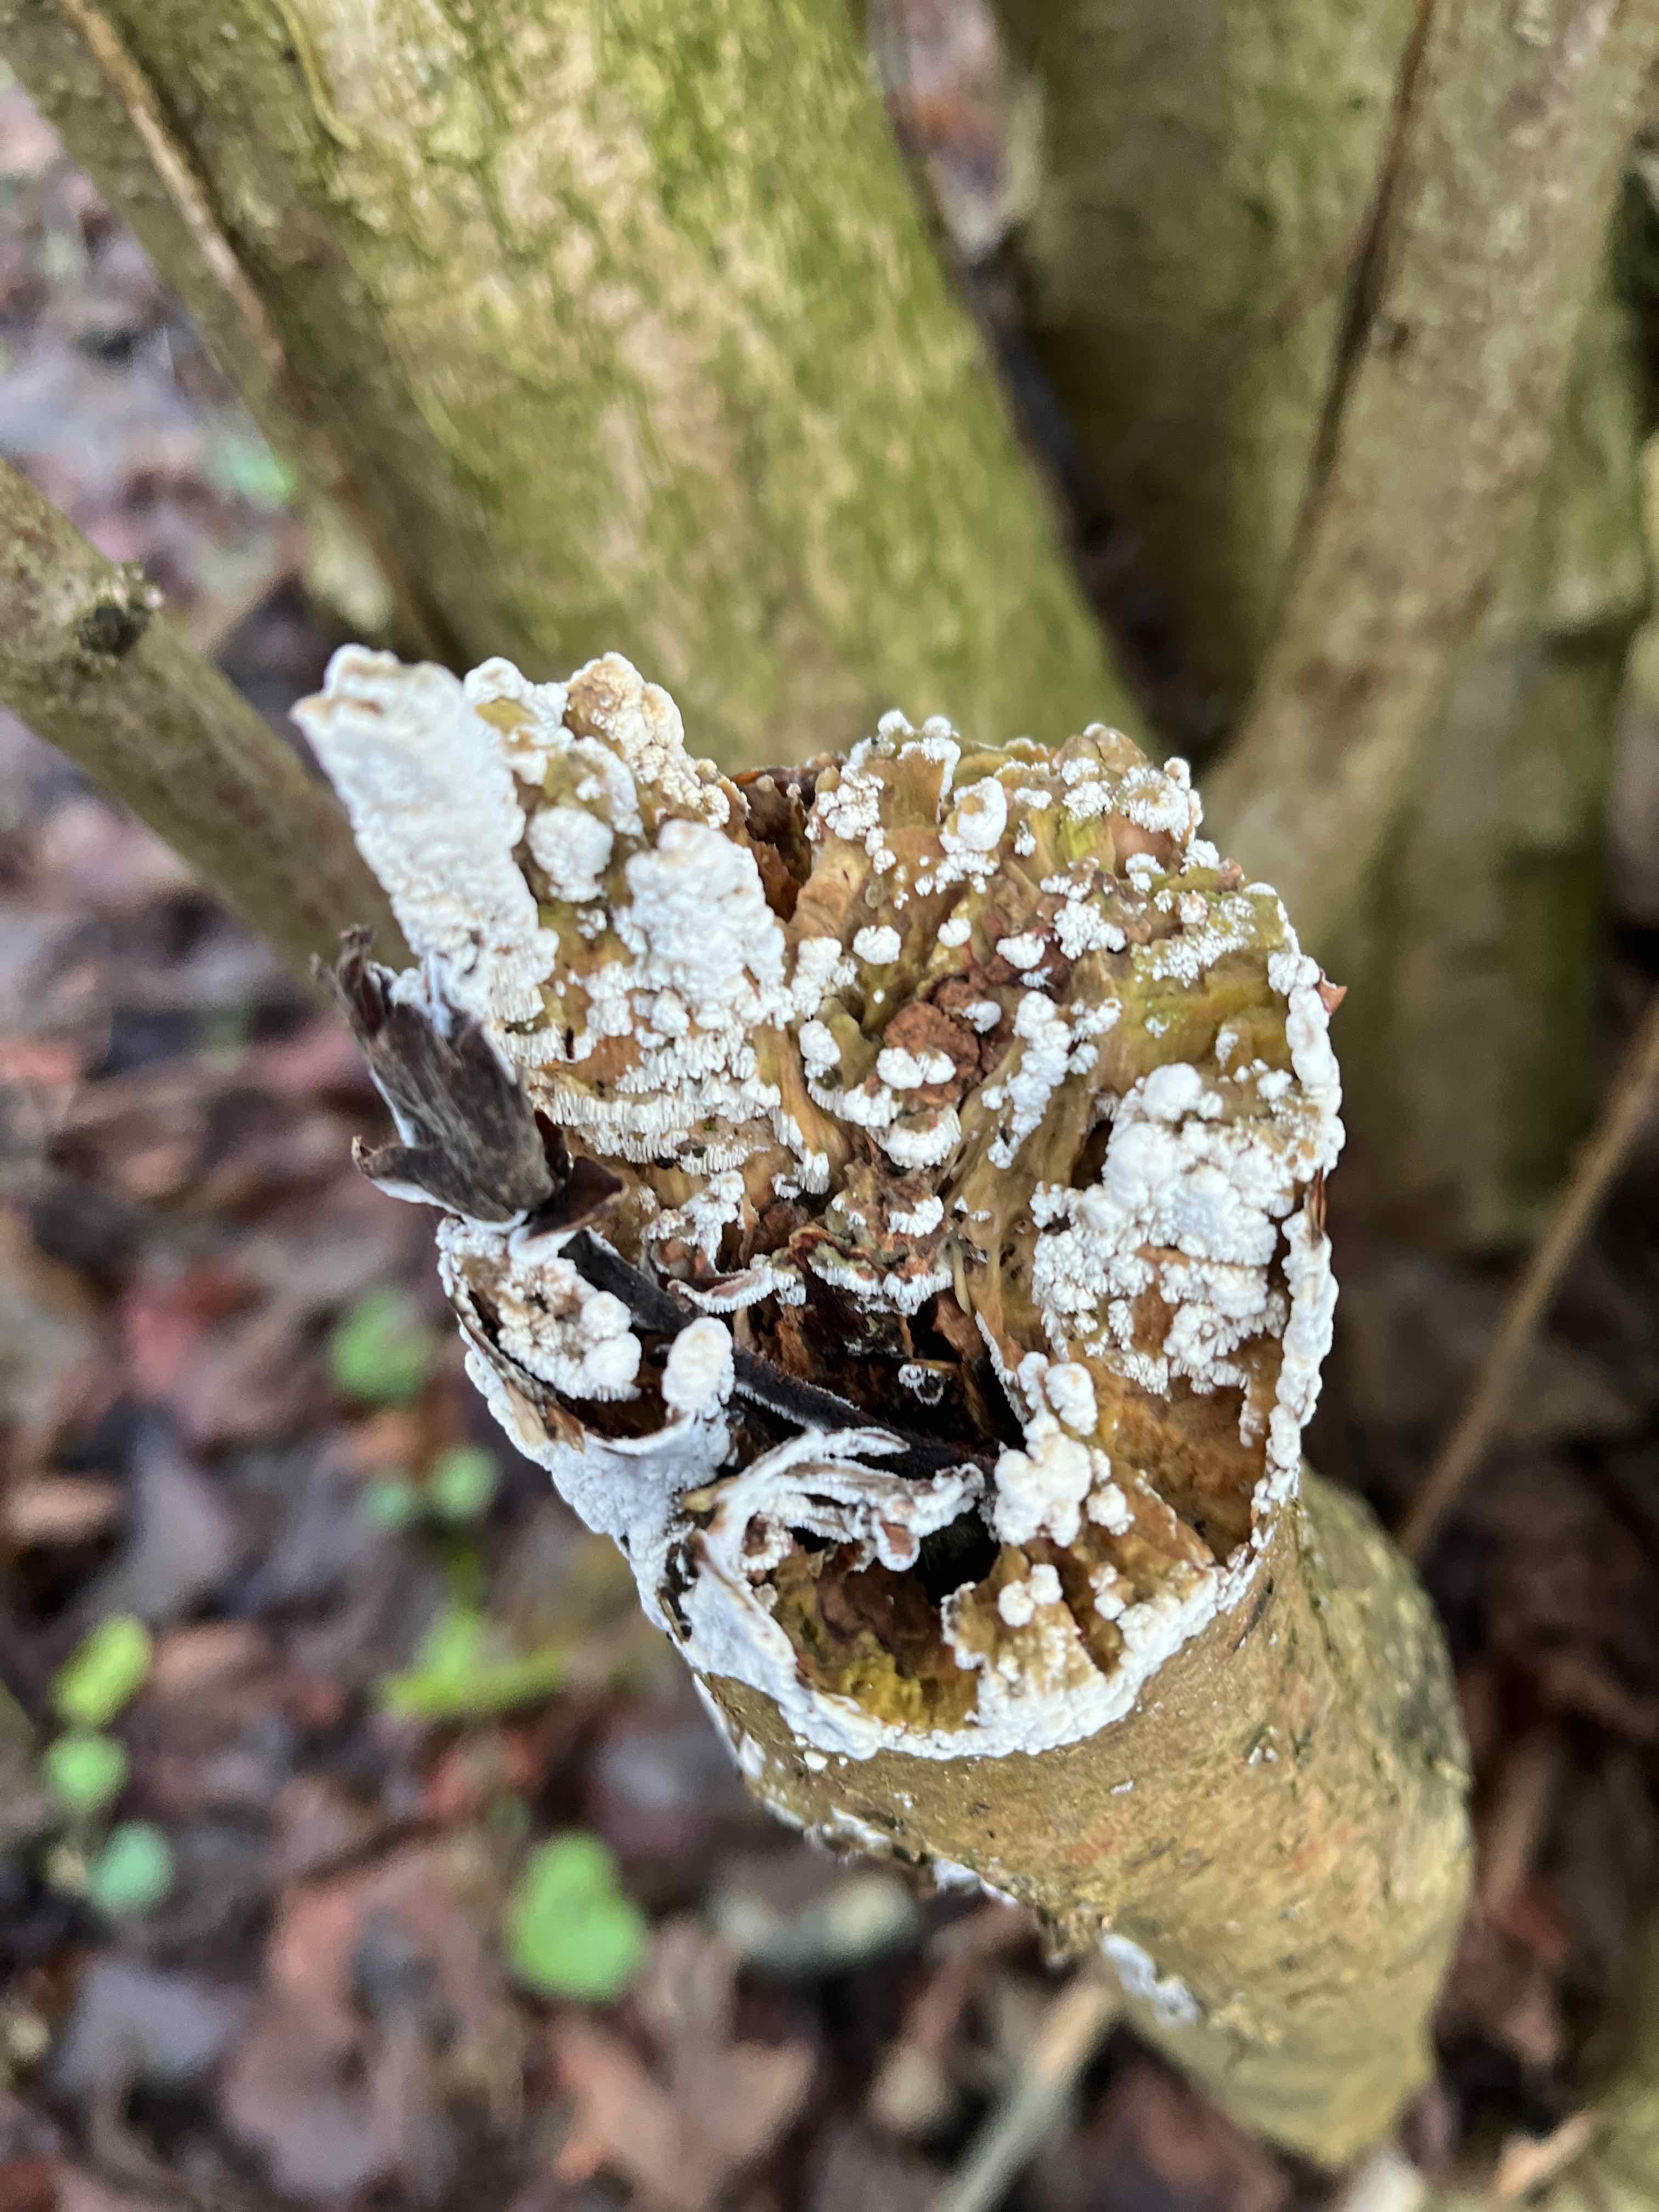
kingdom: Fungi
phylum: Basidiomycota
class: Agaricomycetes
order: Hymenochaetales
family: Schizoporaceae
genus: Xylodon
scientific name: Xylodon
